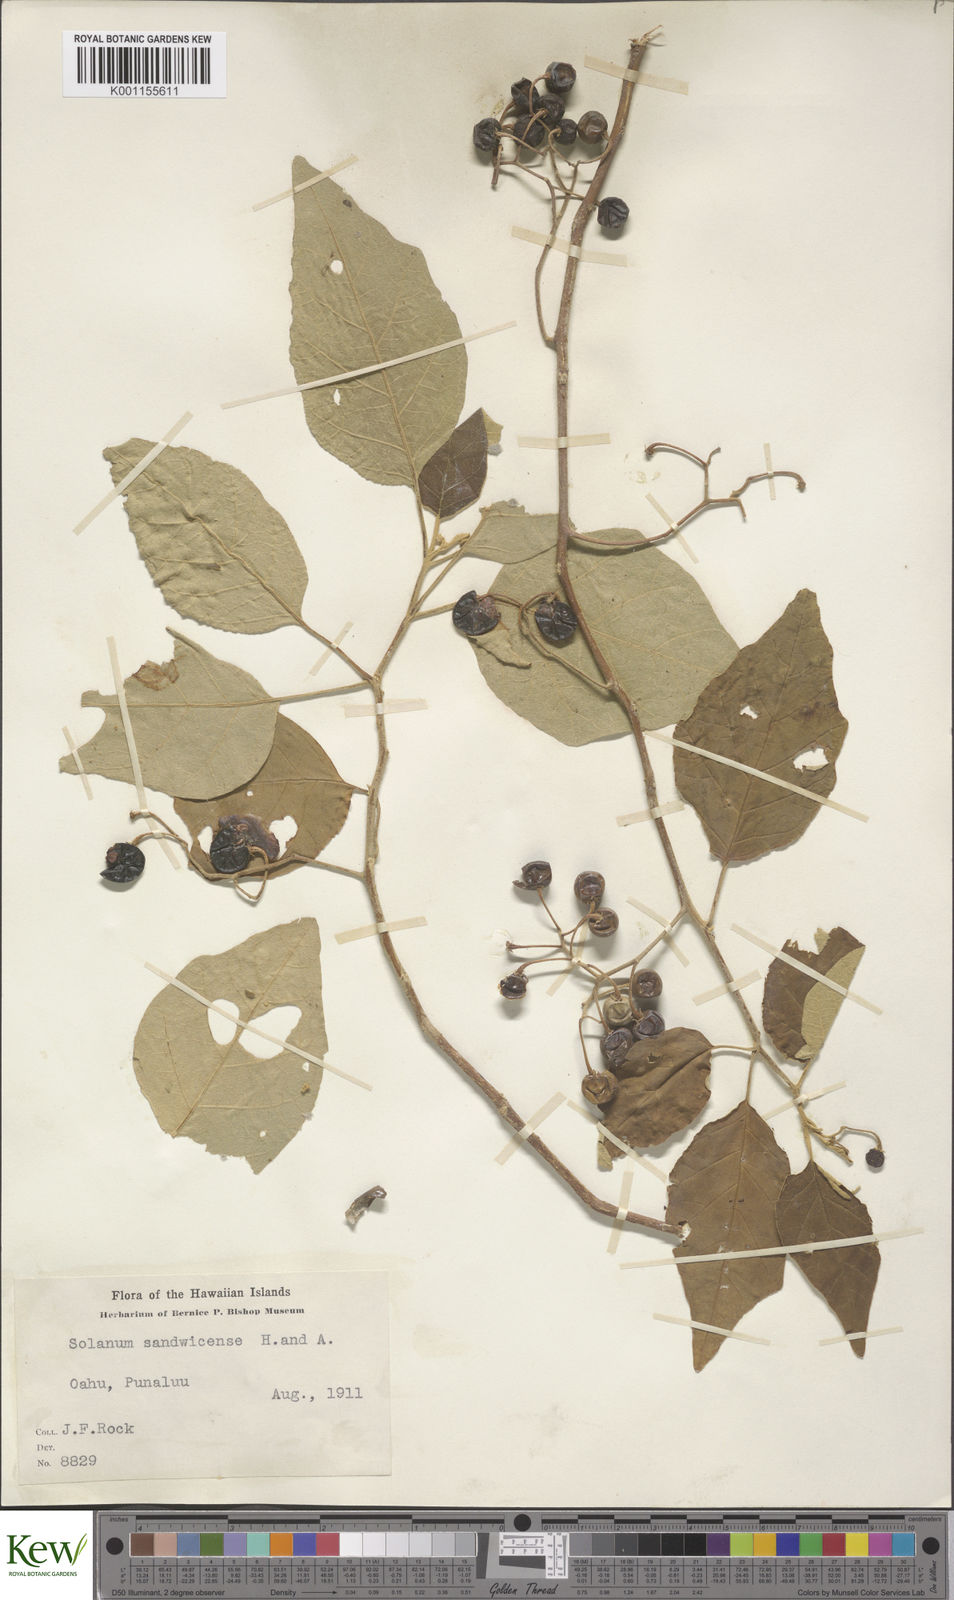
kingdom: Plantae
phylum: Tracheophyta
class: Magnoliopsida
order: Solanales
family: Solanaceae
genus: Solanum
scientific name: Solanum sandwicense
